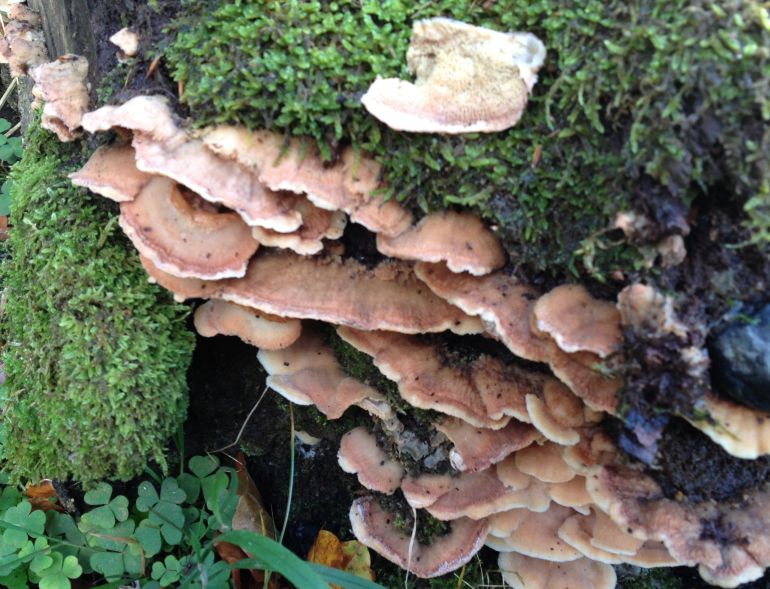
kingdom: Fungi
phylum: Basidiomycota
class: Agaricomycetes
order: Polyporales
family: Meruliaceae
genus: Phlebia
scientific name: Phlebia tremellosa
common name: bævrende åresvamp
